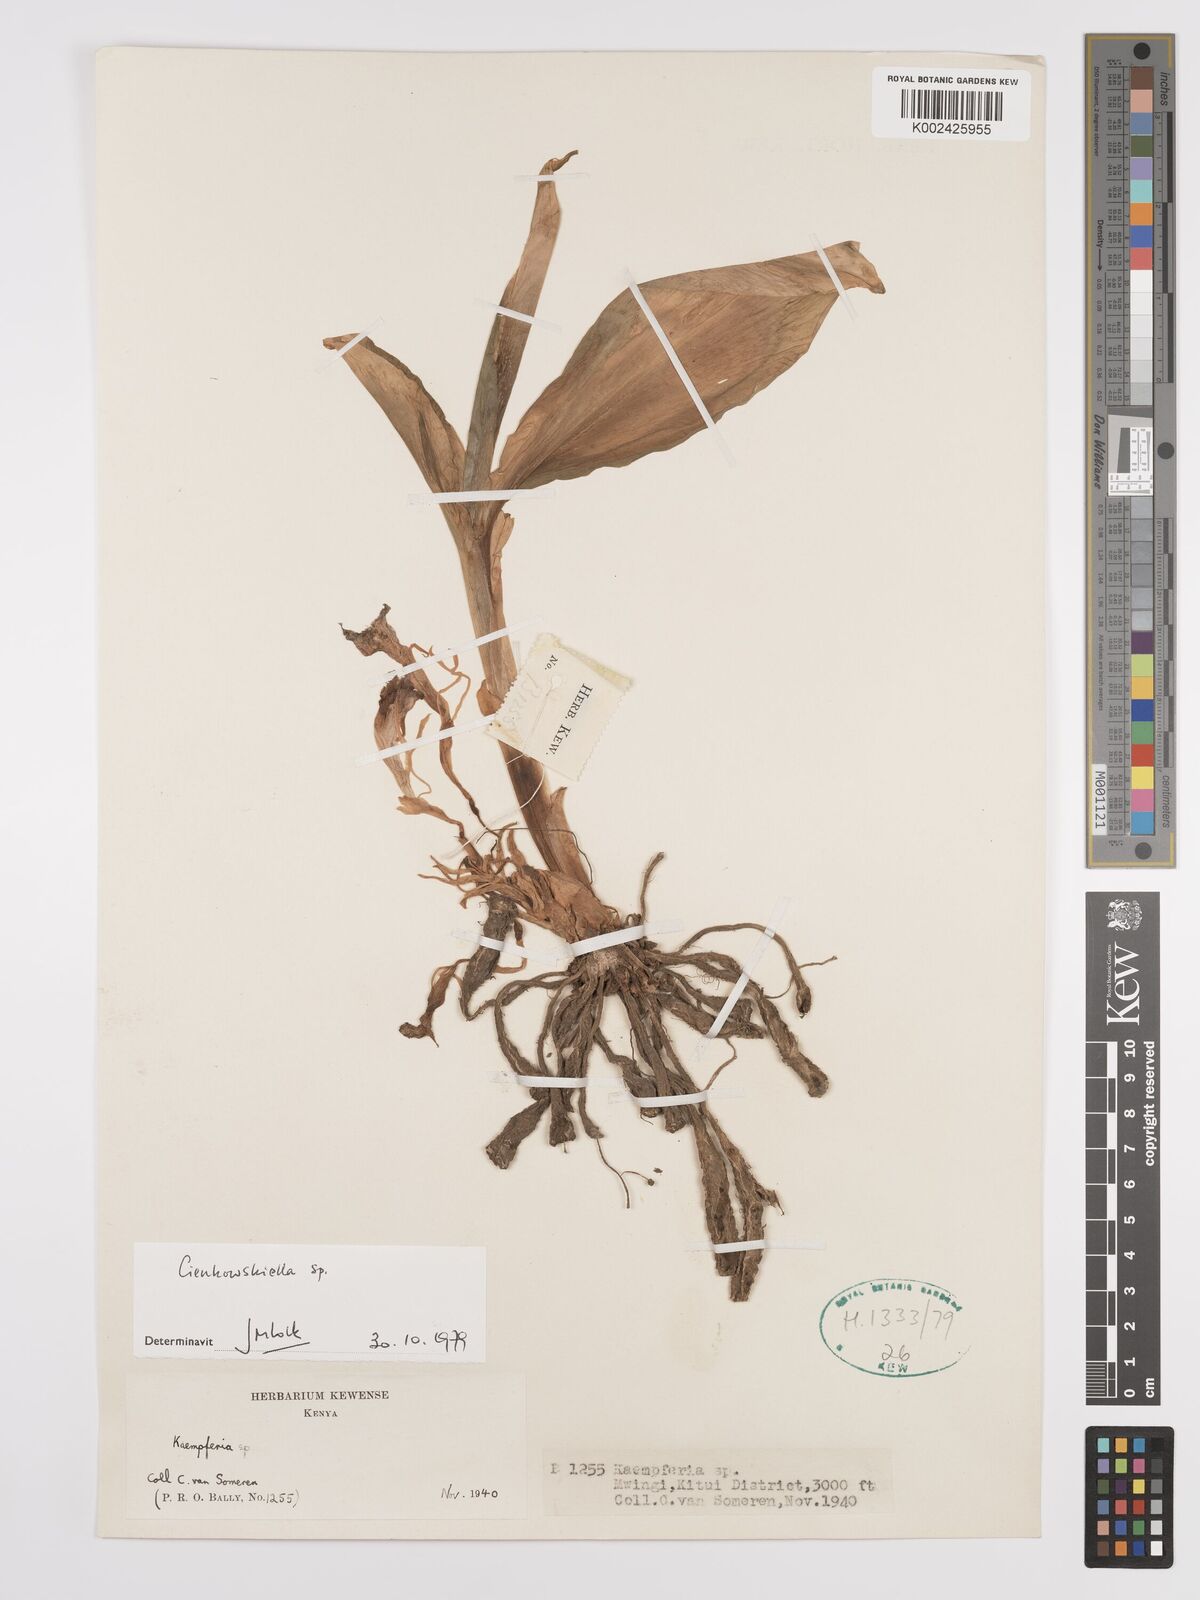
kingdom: Plantae
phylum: Tracheophyta
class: Liliopsida
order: Zingiberales
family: Zingiberaceae
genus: Siphonochilus
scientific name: Siphonochilus
